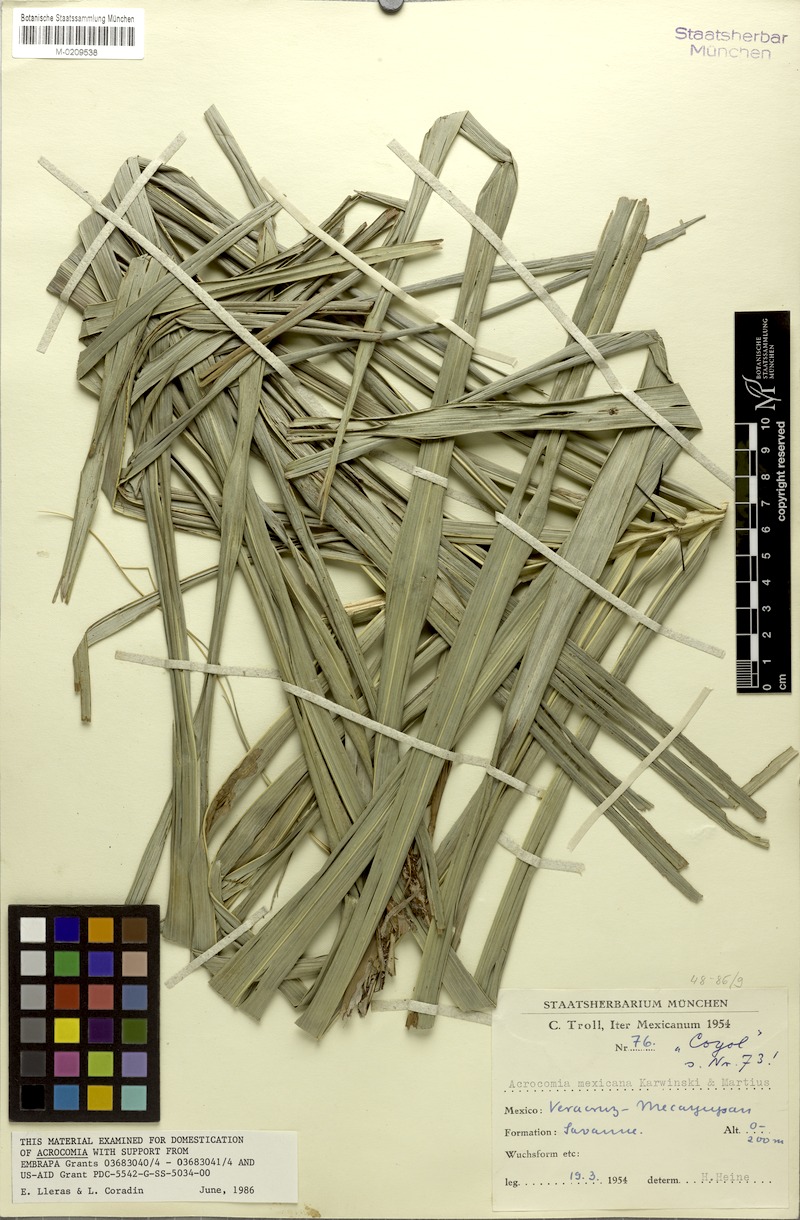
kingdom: Plantae
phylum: Tracheophyta
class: Liliopsida
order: Arecales
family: Arecaceae
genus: Acrocomia
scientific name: Acrocomia aculeata
